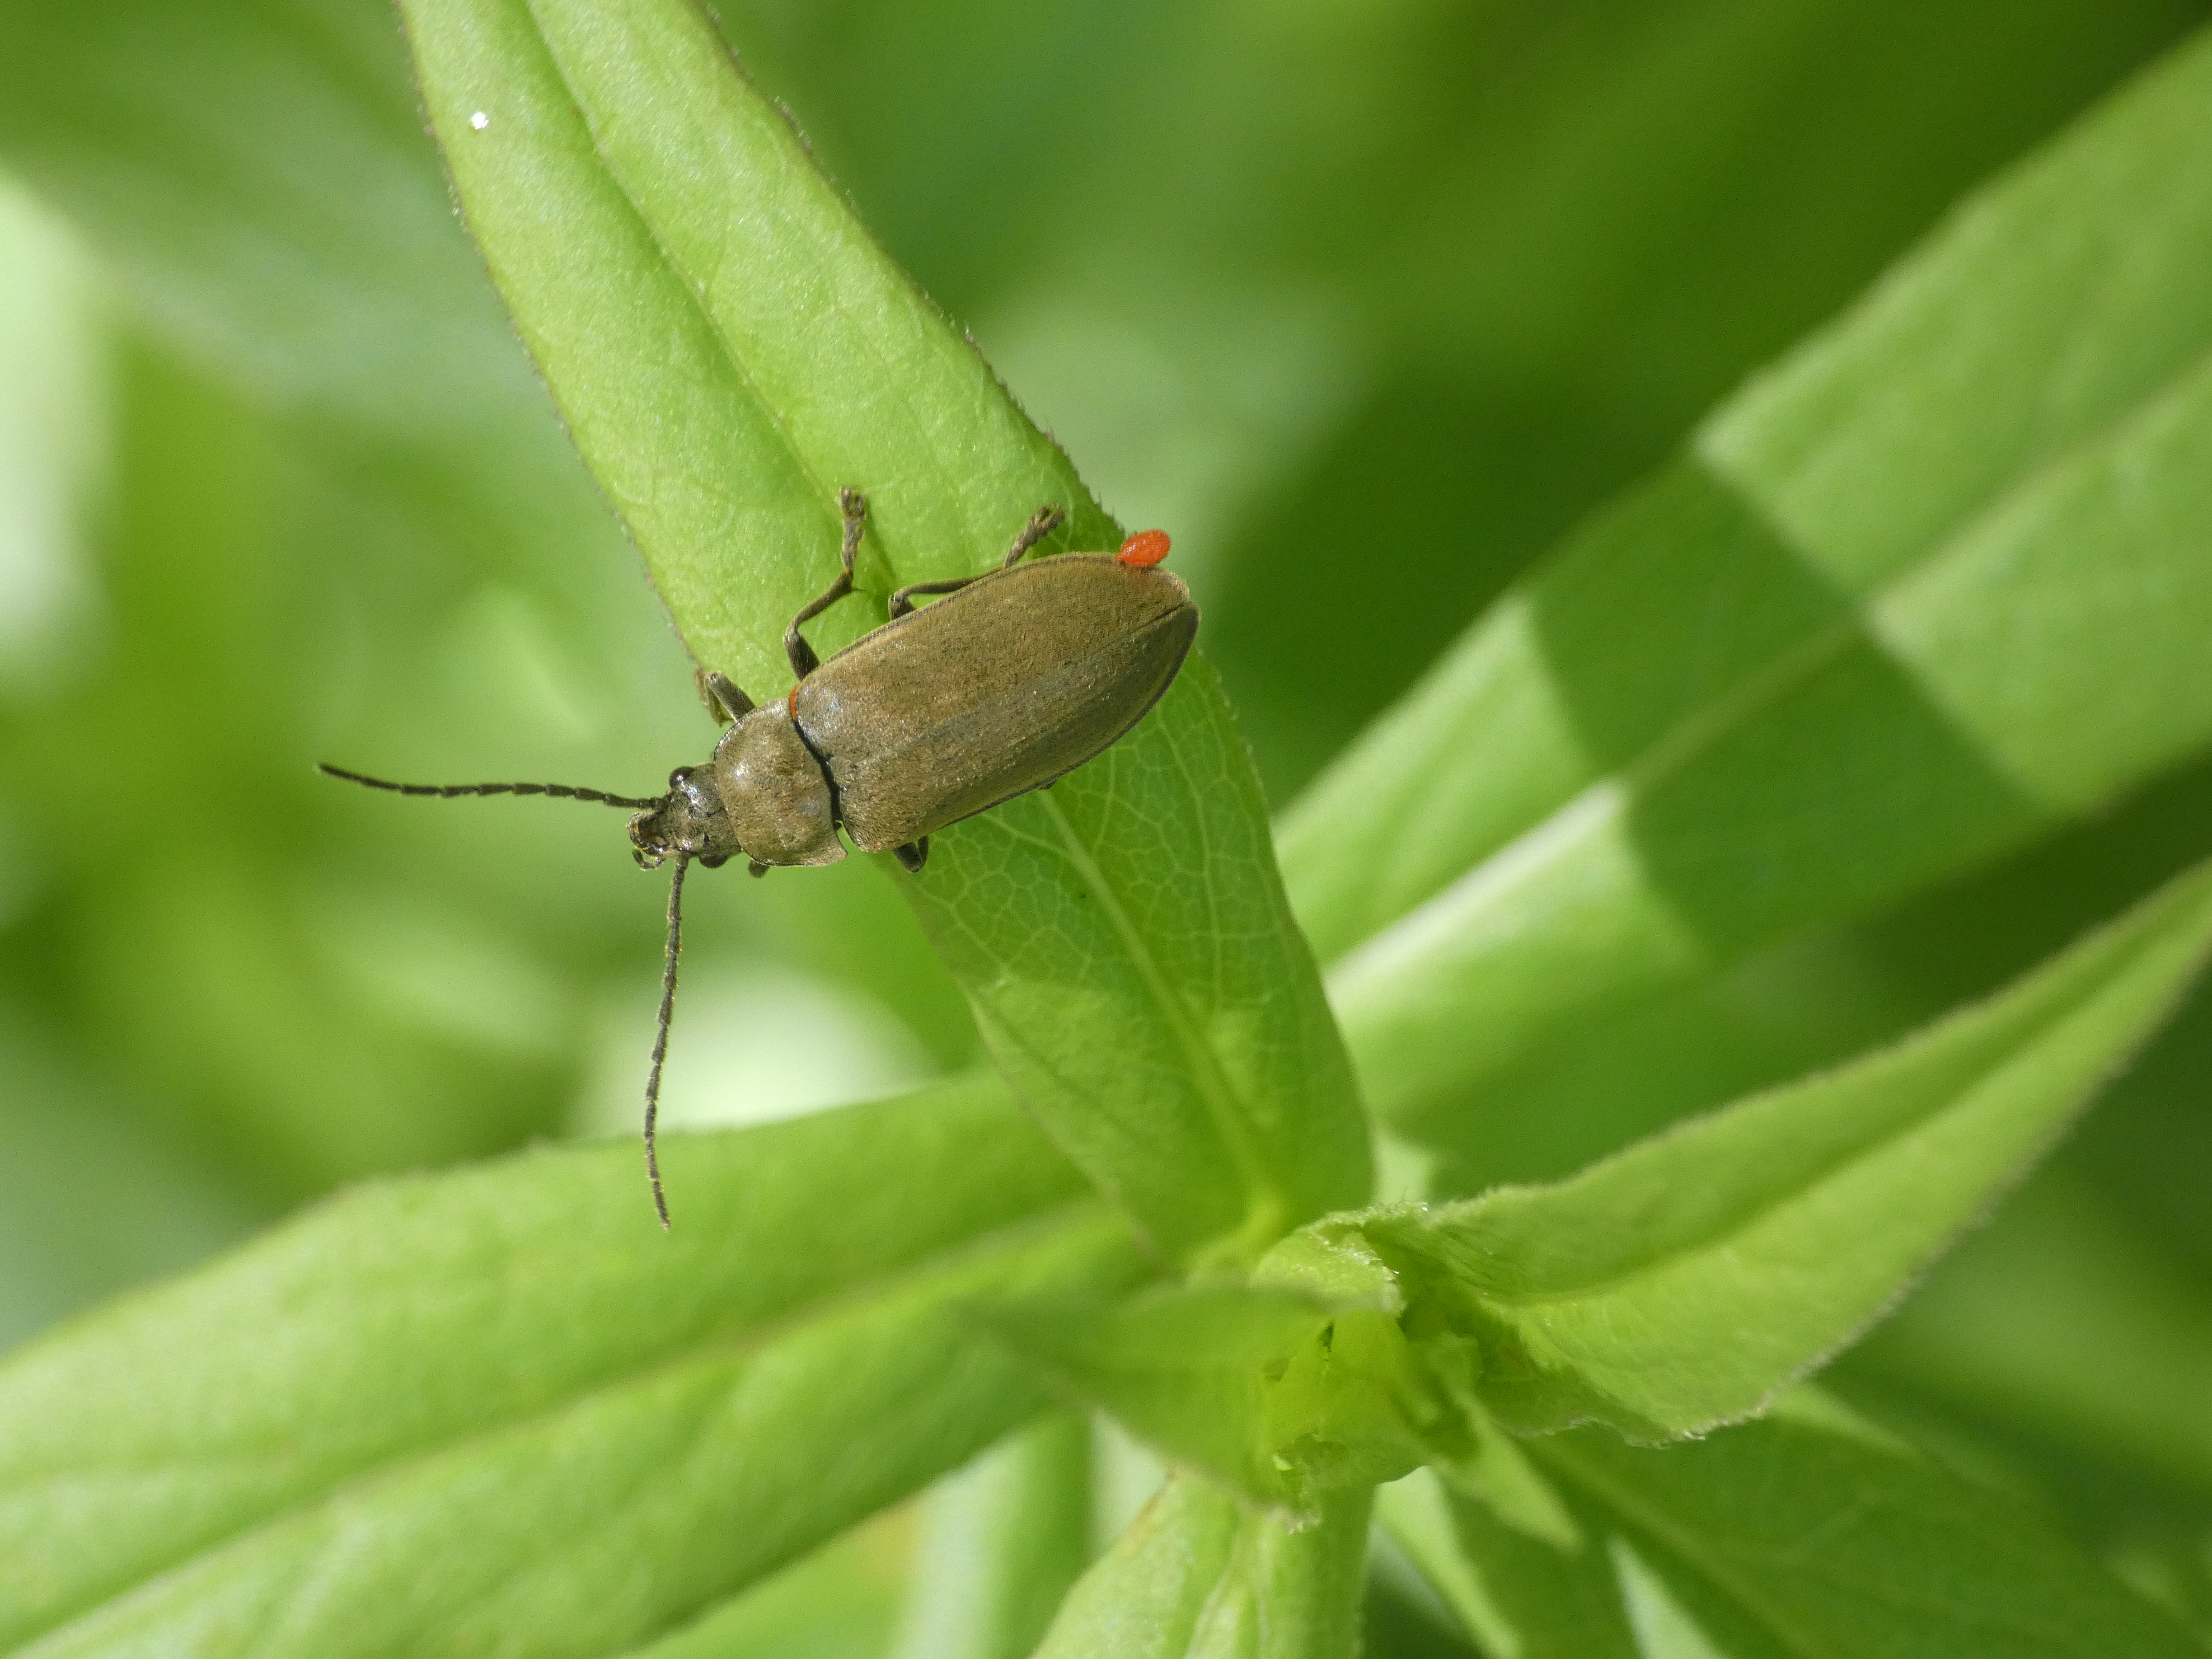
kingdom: Animalia
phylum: Arthropoda
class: Insecta
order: Coleoptera
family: Dascillidae
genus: Dascillus
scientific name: Dascillus cervinus
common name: Moseblødbille
